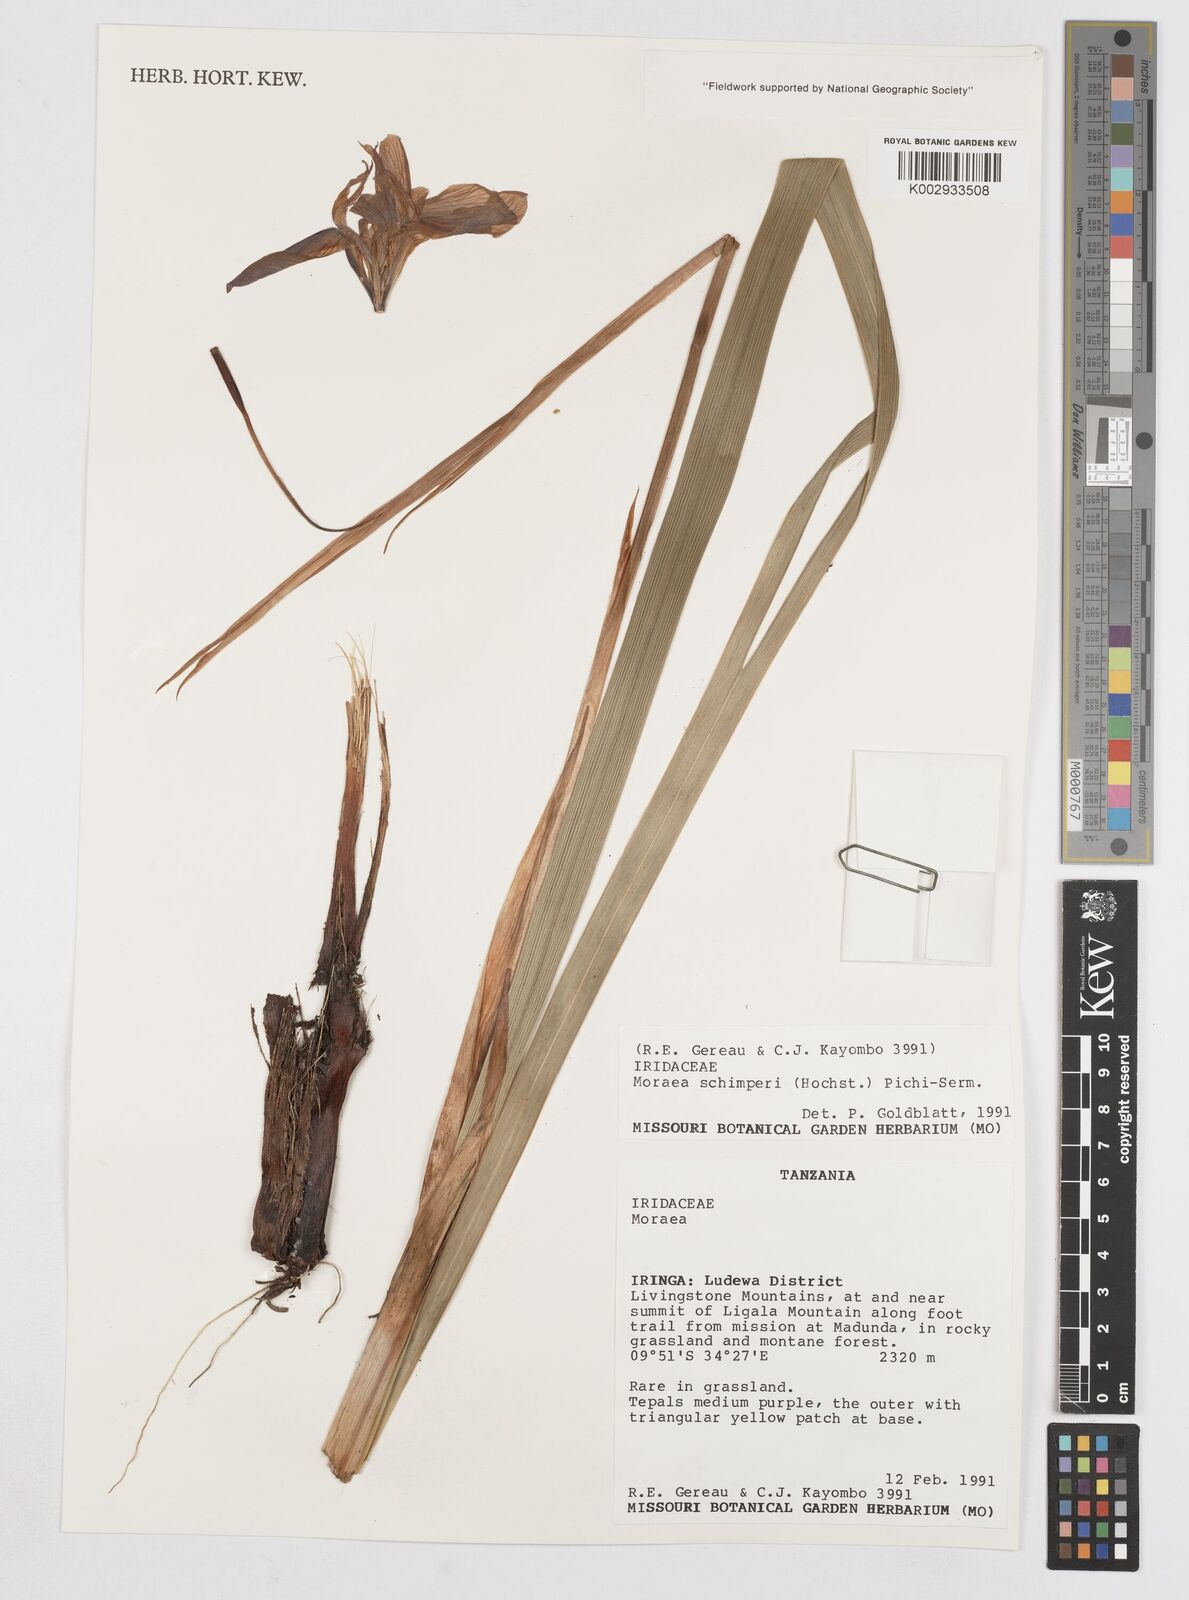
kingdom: Plantae
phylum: Tracheophyta
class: Liliopsida
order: Asparagales
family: Iridaceae
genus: Moraea
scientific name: Moraea schimperi
